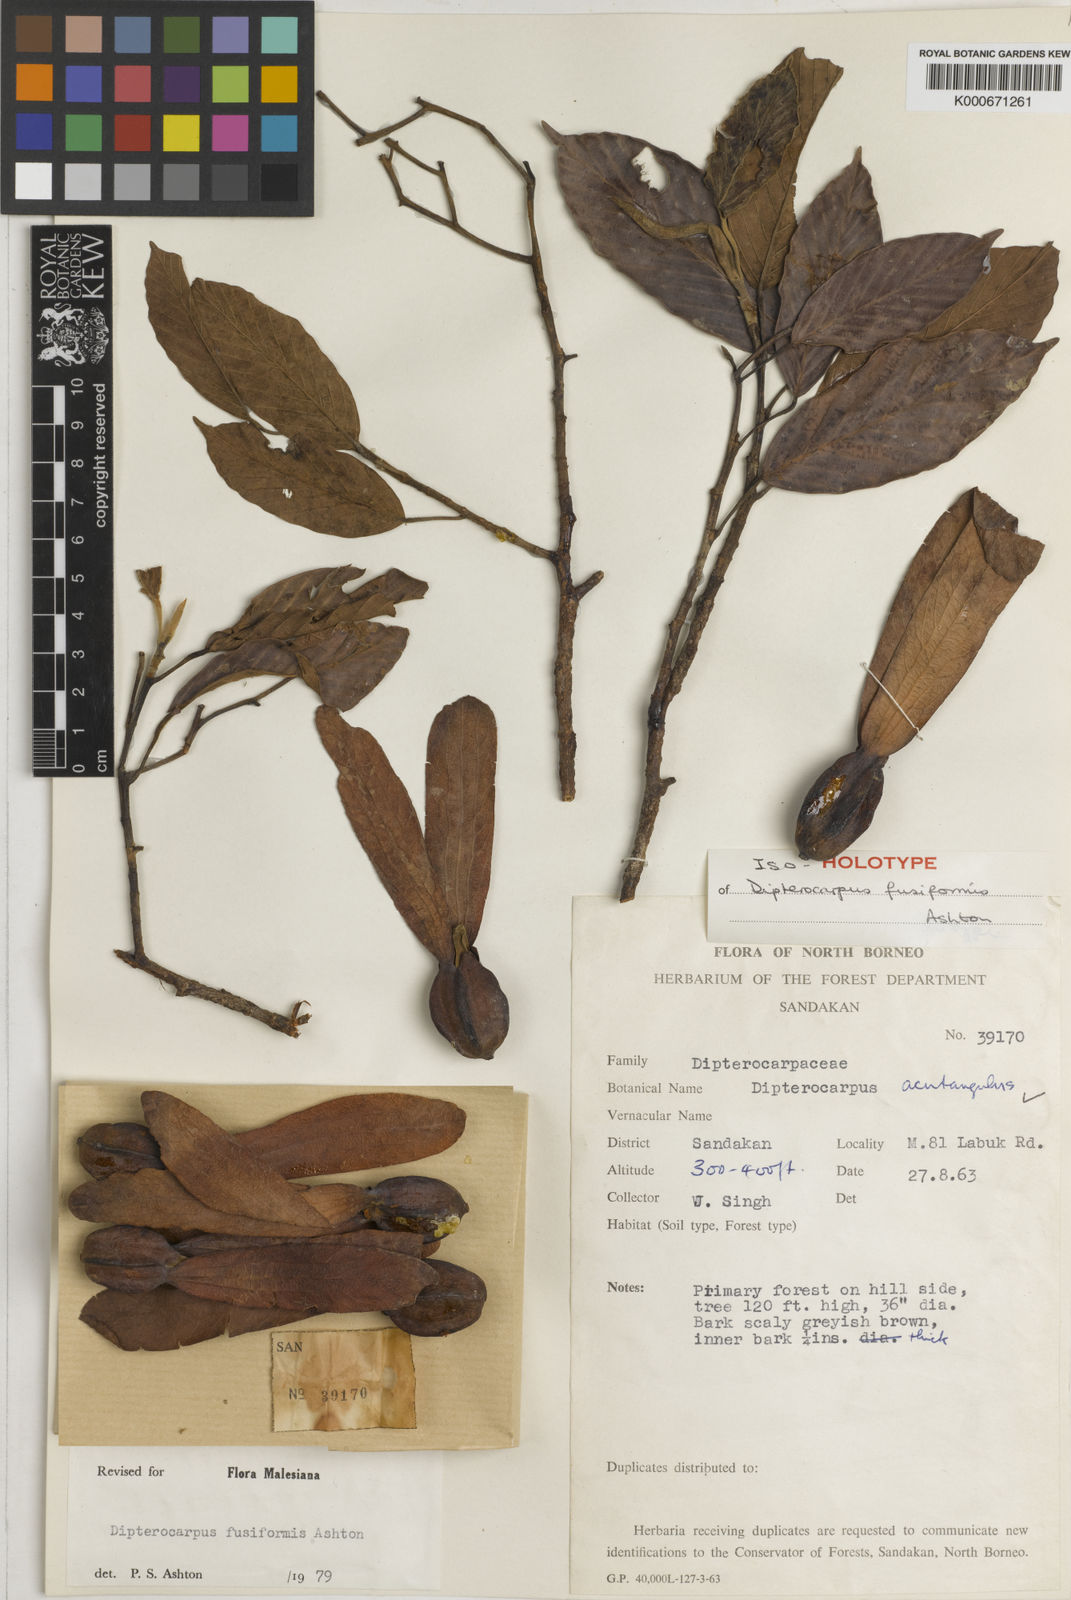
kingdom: Plantae
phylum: Tracheophyta
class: Magnoliopsida
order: Malvales
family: Dipterocarpaceae
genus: Dipterocarpus
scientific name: Dipterocarpus fusiformis
